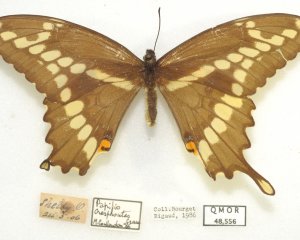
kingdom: Animalia
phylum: Arthropoda
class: Insecta
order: Lepidoptera
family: Papilionidae
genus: Papilio
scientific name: Papilio cresphontes
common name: Eastern Giant Swallowtail
